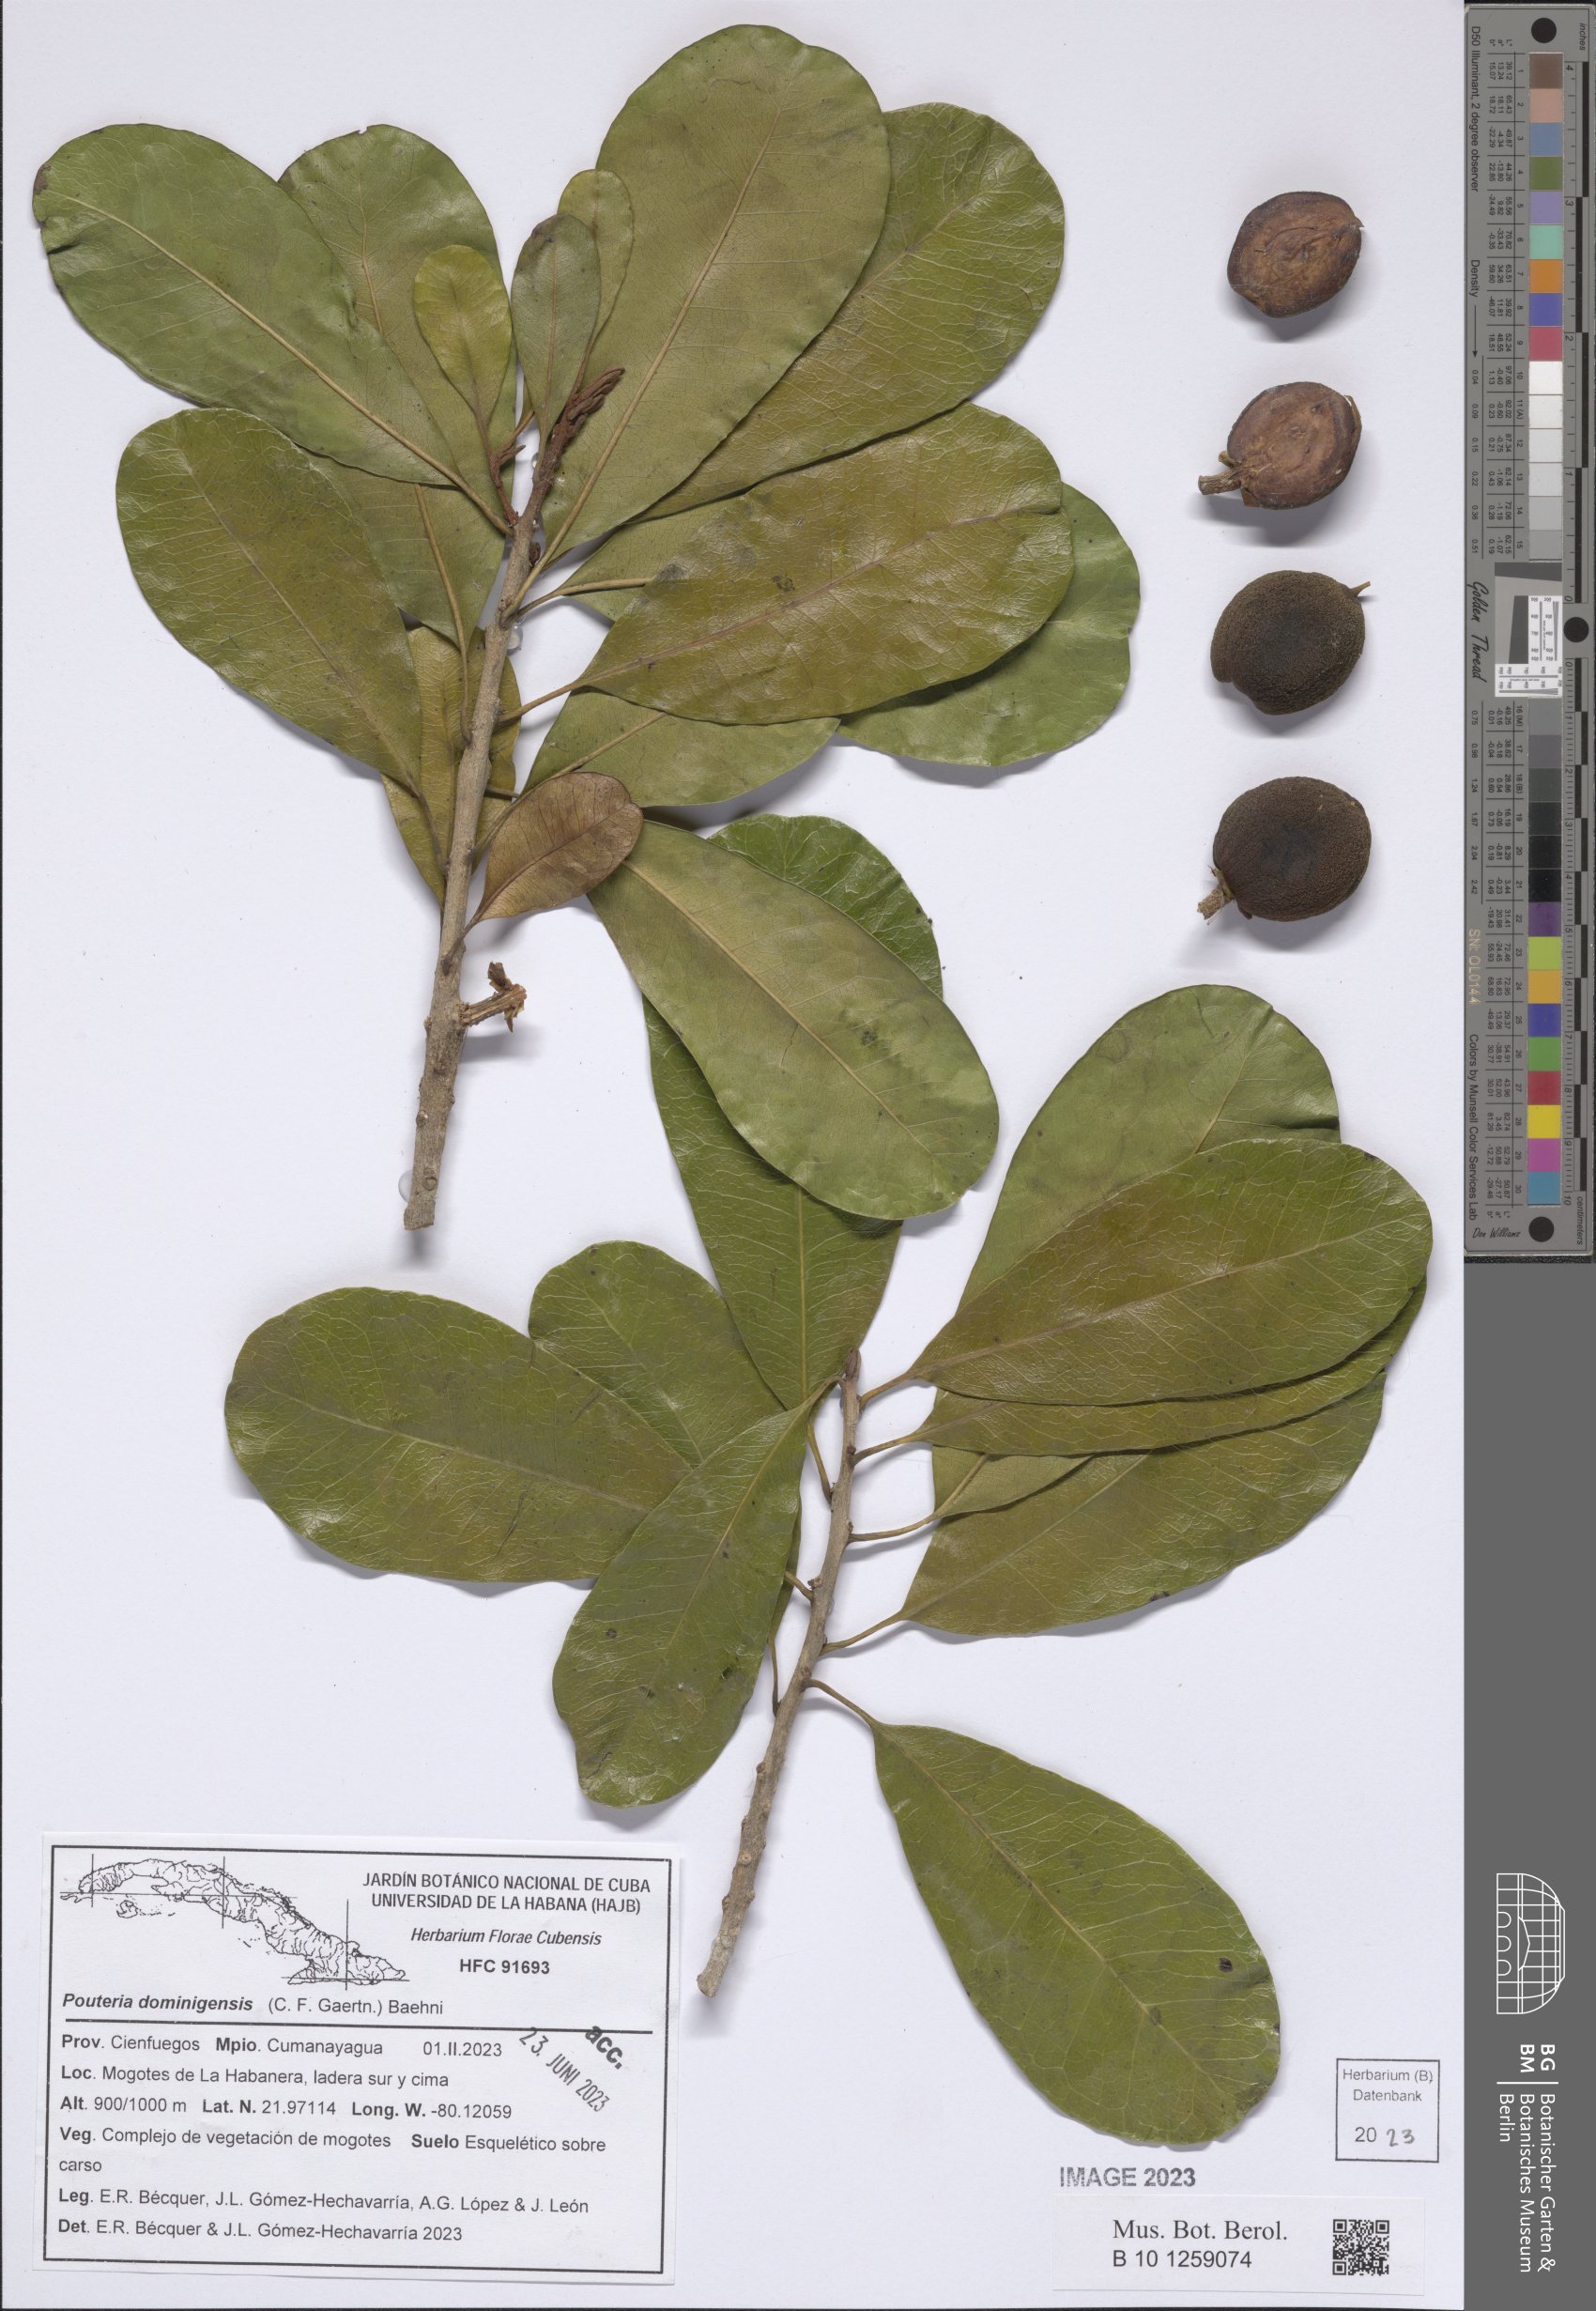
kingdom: Plantae
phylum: Tracheophyta
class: Magnoliopsida
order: Ericales
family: Sapotaceae
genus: Pouteria
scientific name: Pouteria dominigensis
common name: Jacana
